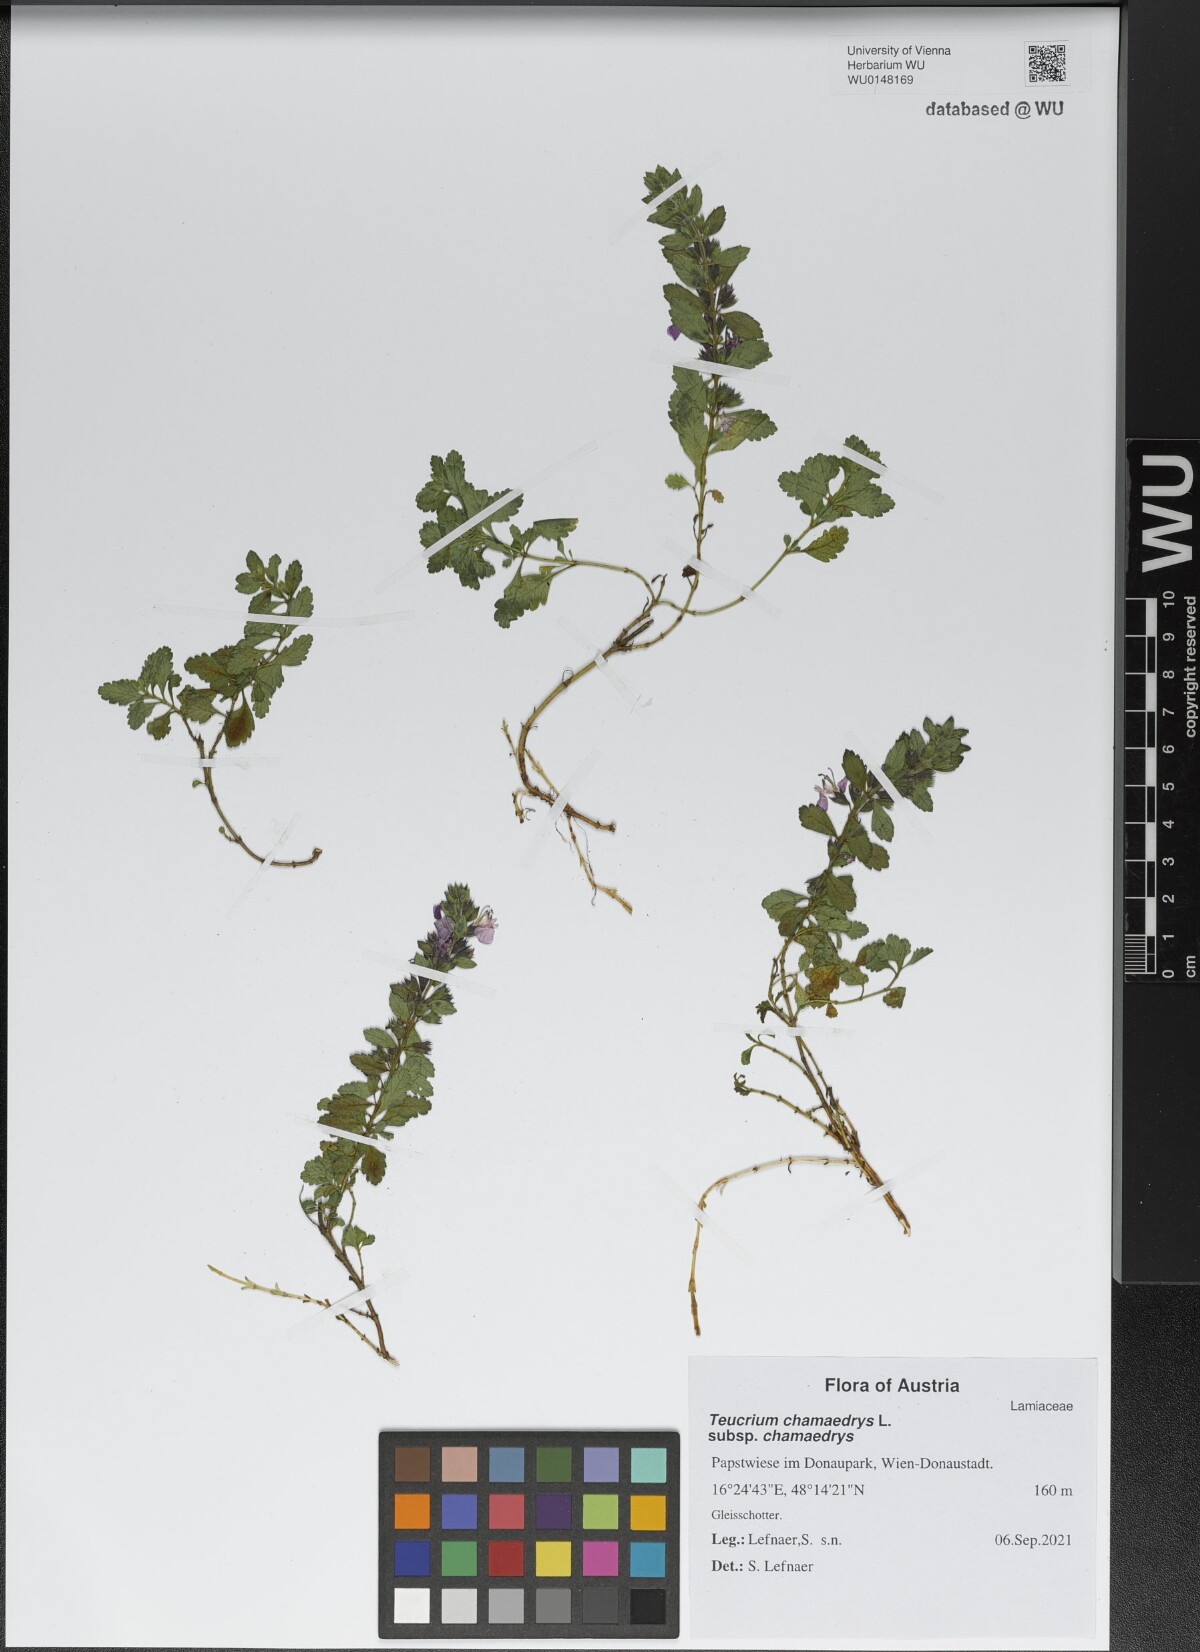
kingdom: Plantae
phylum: Tracheophyta
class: Magnoliopsida
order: Lamiales
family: Lamiaceae
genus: Teucrium
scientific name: Teucrium chamaedrys
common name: Wall germander
